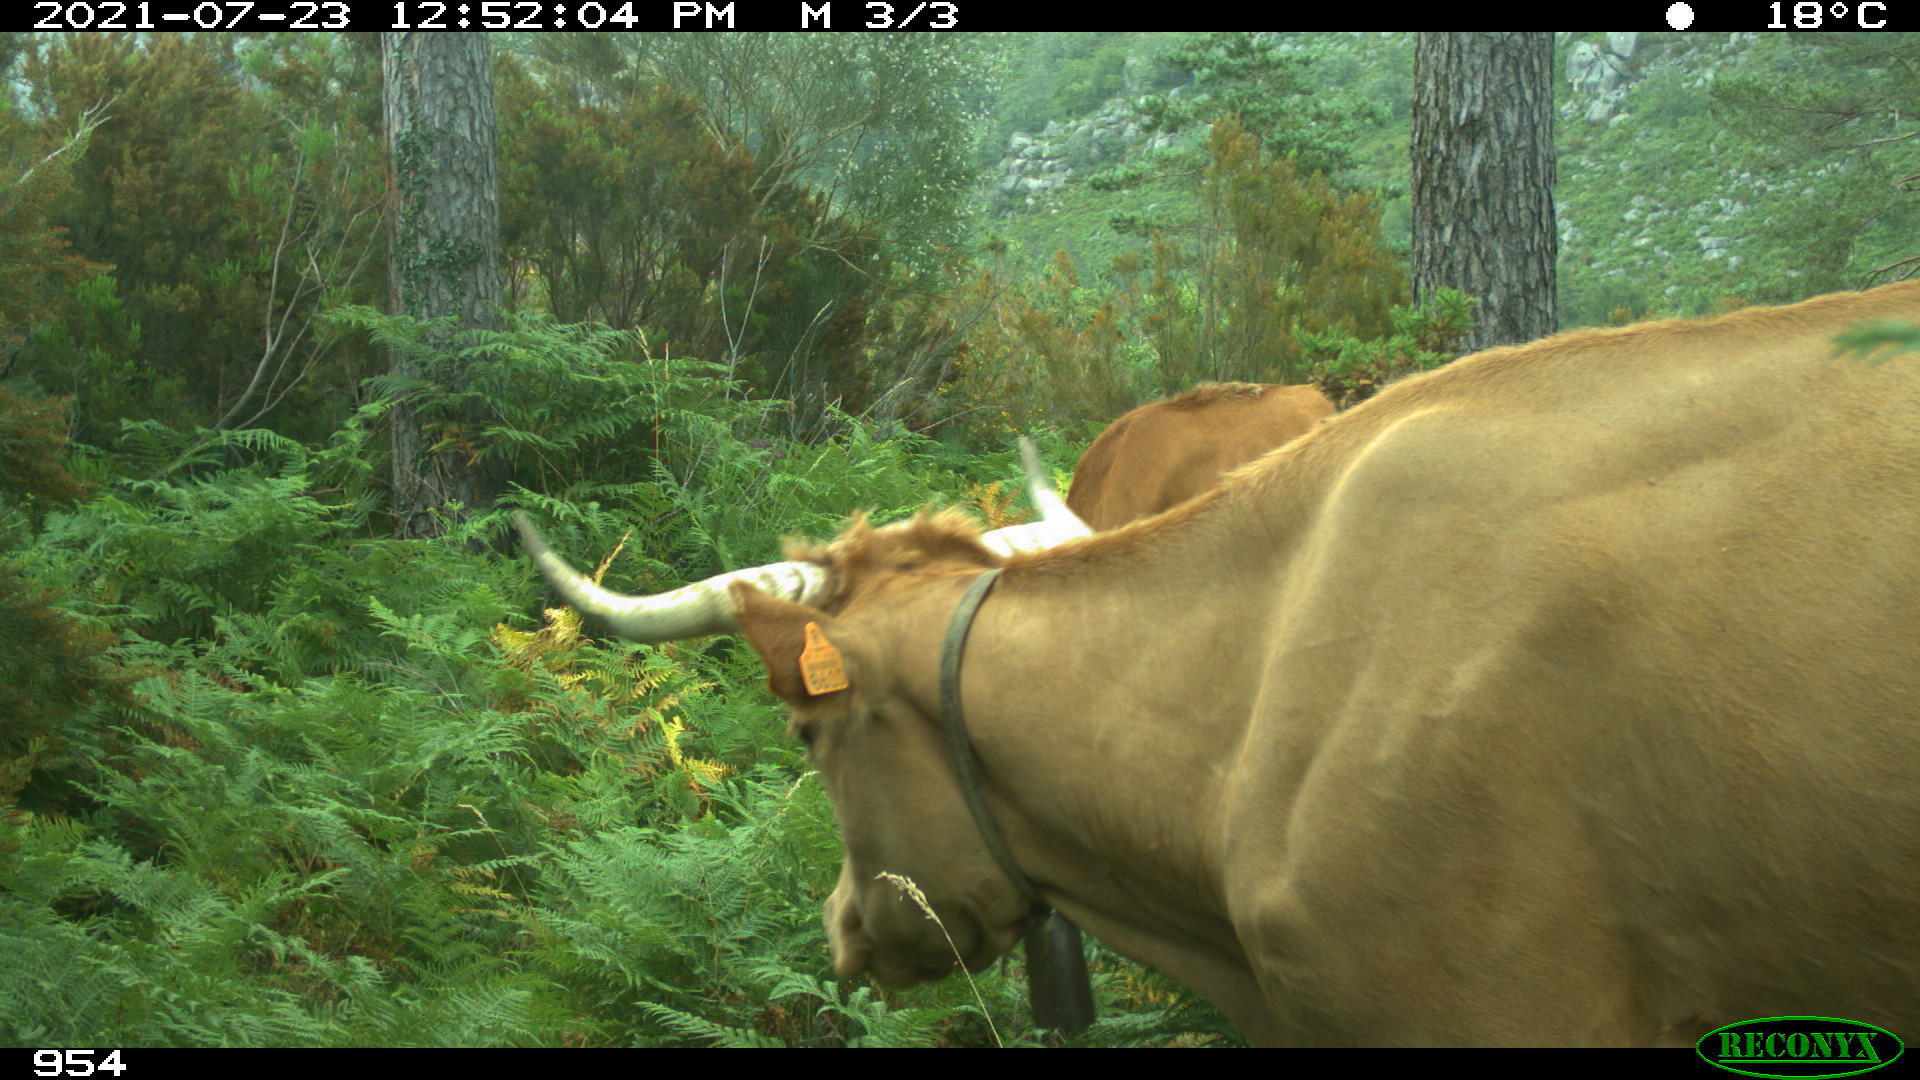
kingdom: Animalia
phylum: Chordata
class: Mammalia
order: Artiodactyla
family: Bovidae
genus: Bos
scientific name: Bos taurus
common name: Domesticated cattle
